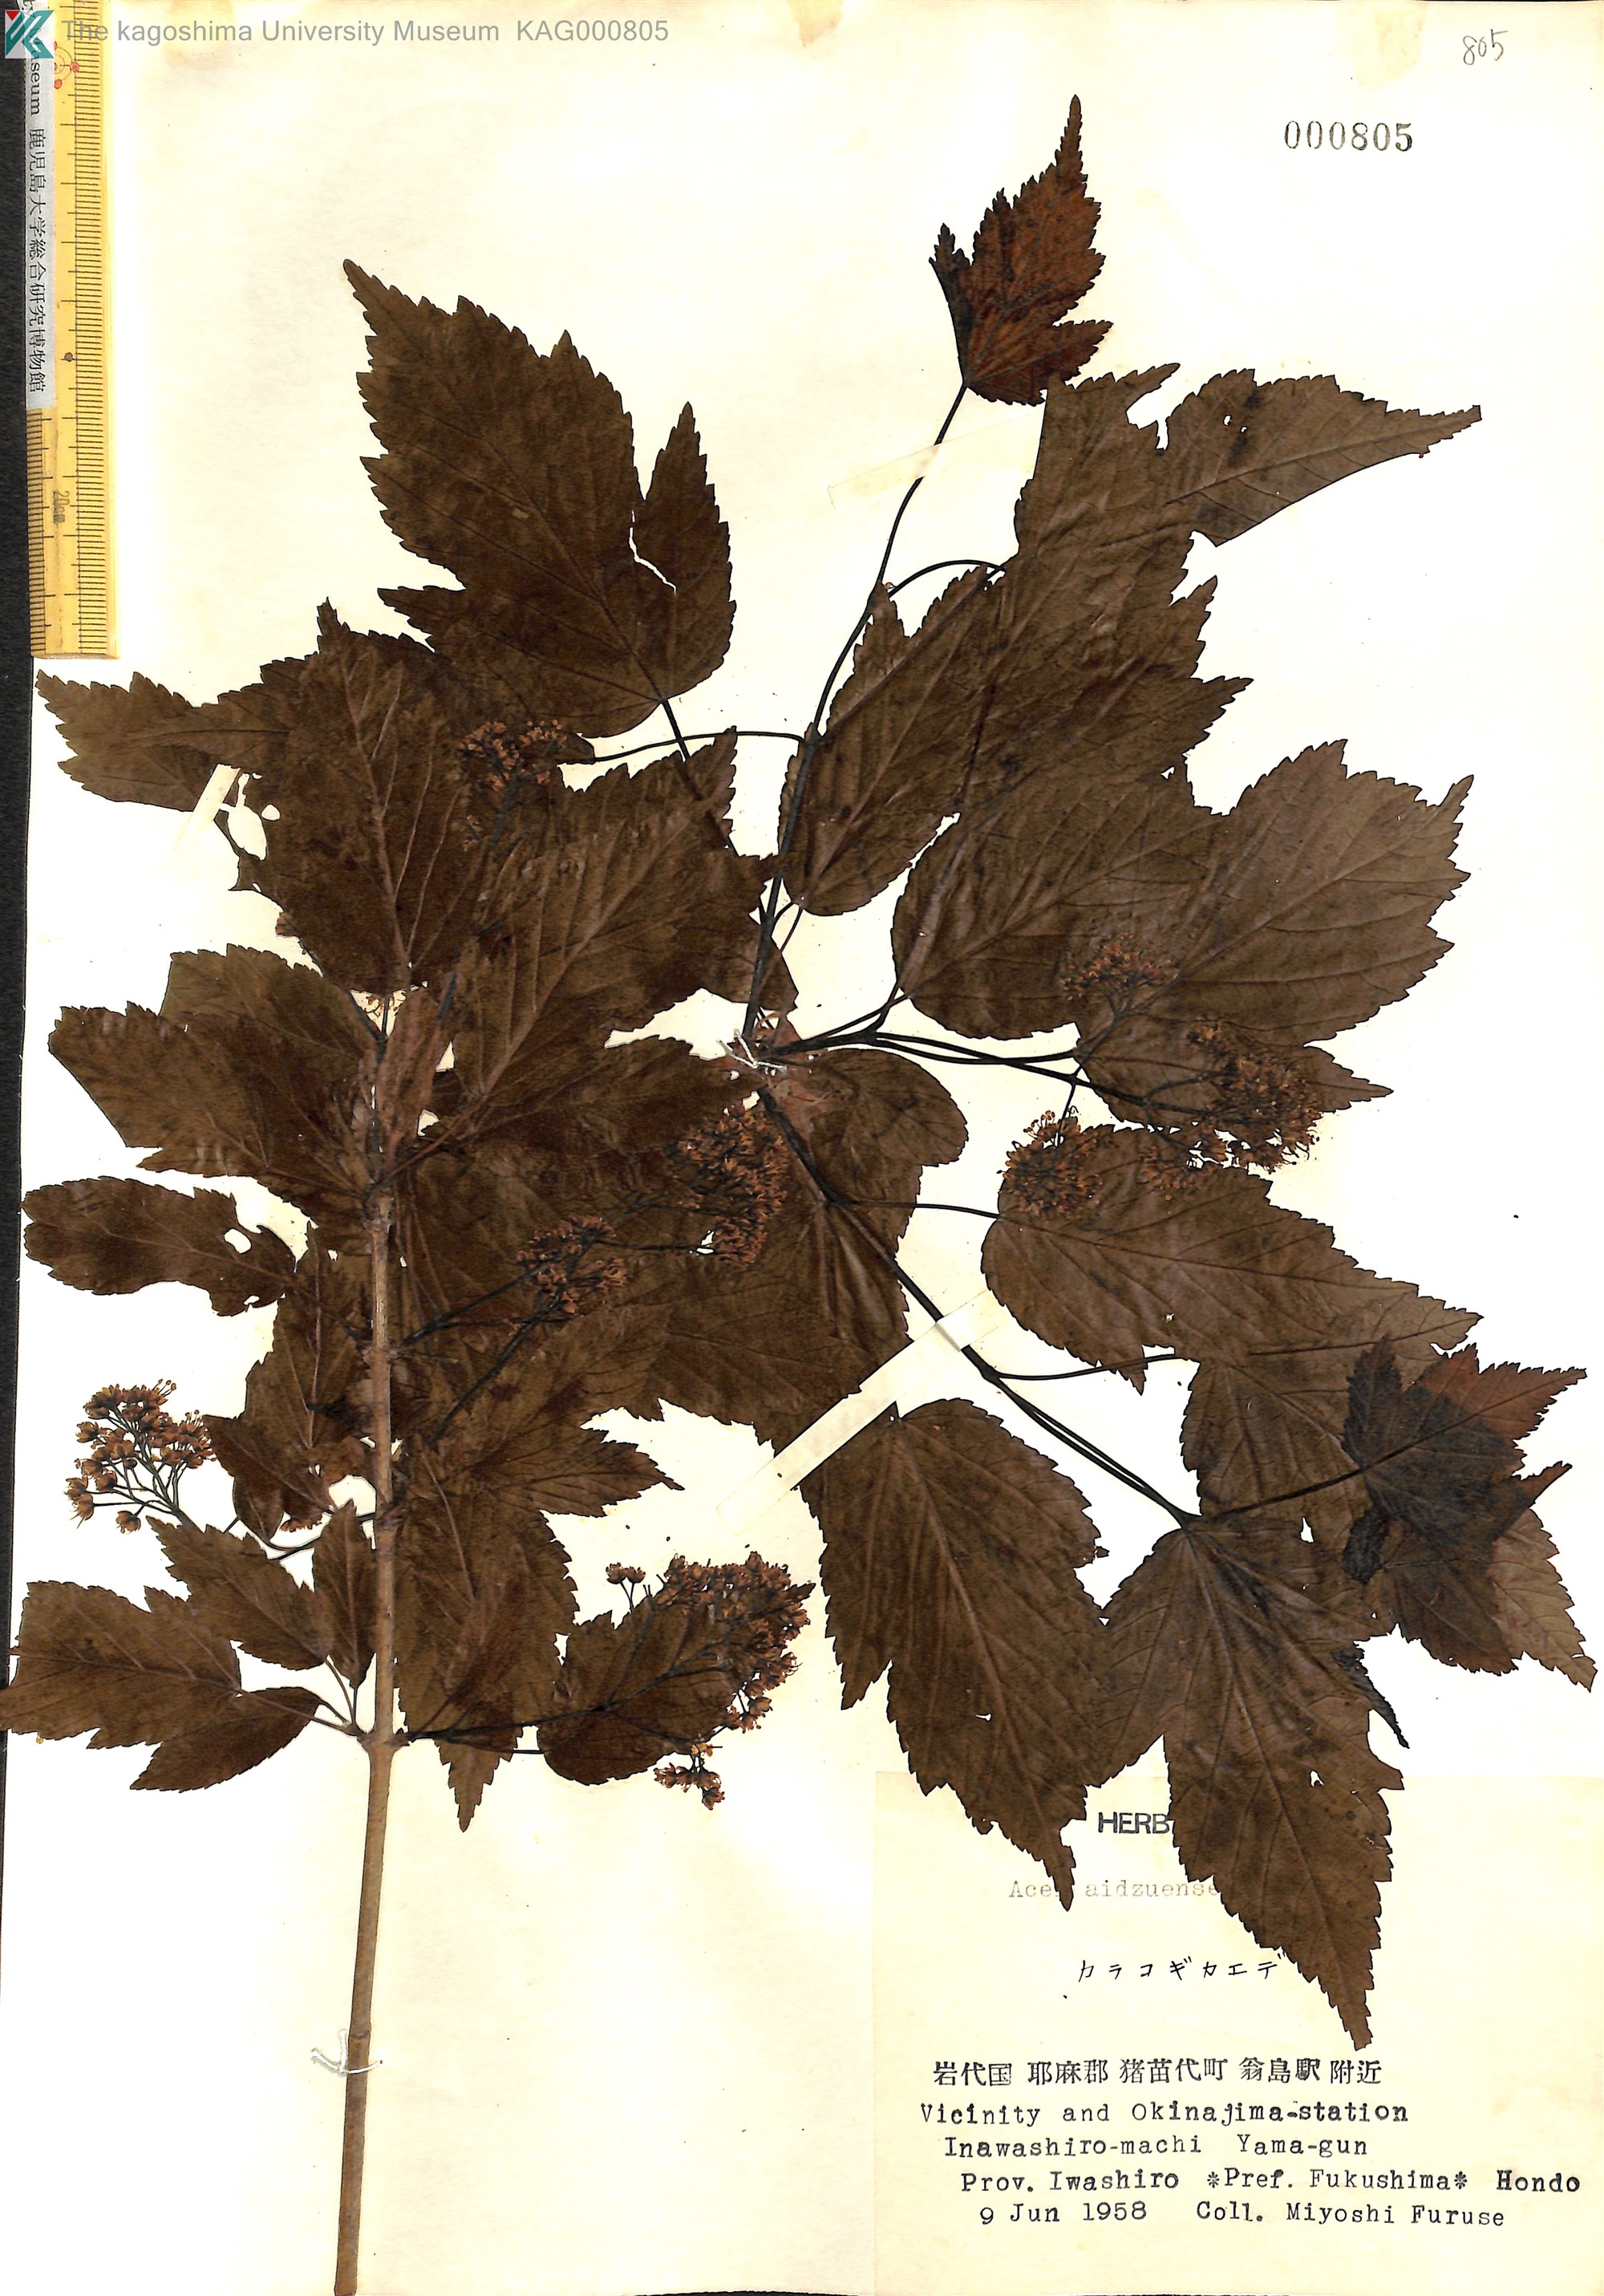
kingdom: Plantae
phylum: Tracheophyta
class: Magnoliopsida
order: Sapindales
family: Sapindaceae
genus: Acer
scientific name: Acer tataricum
